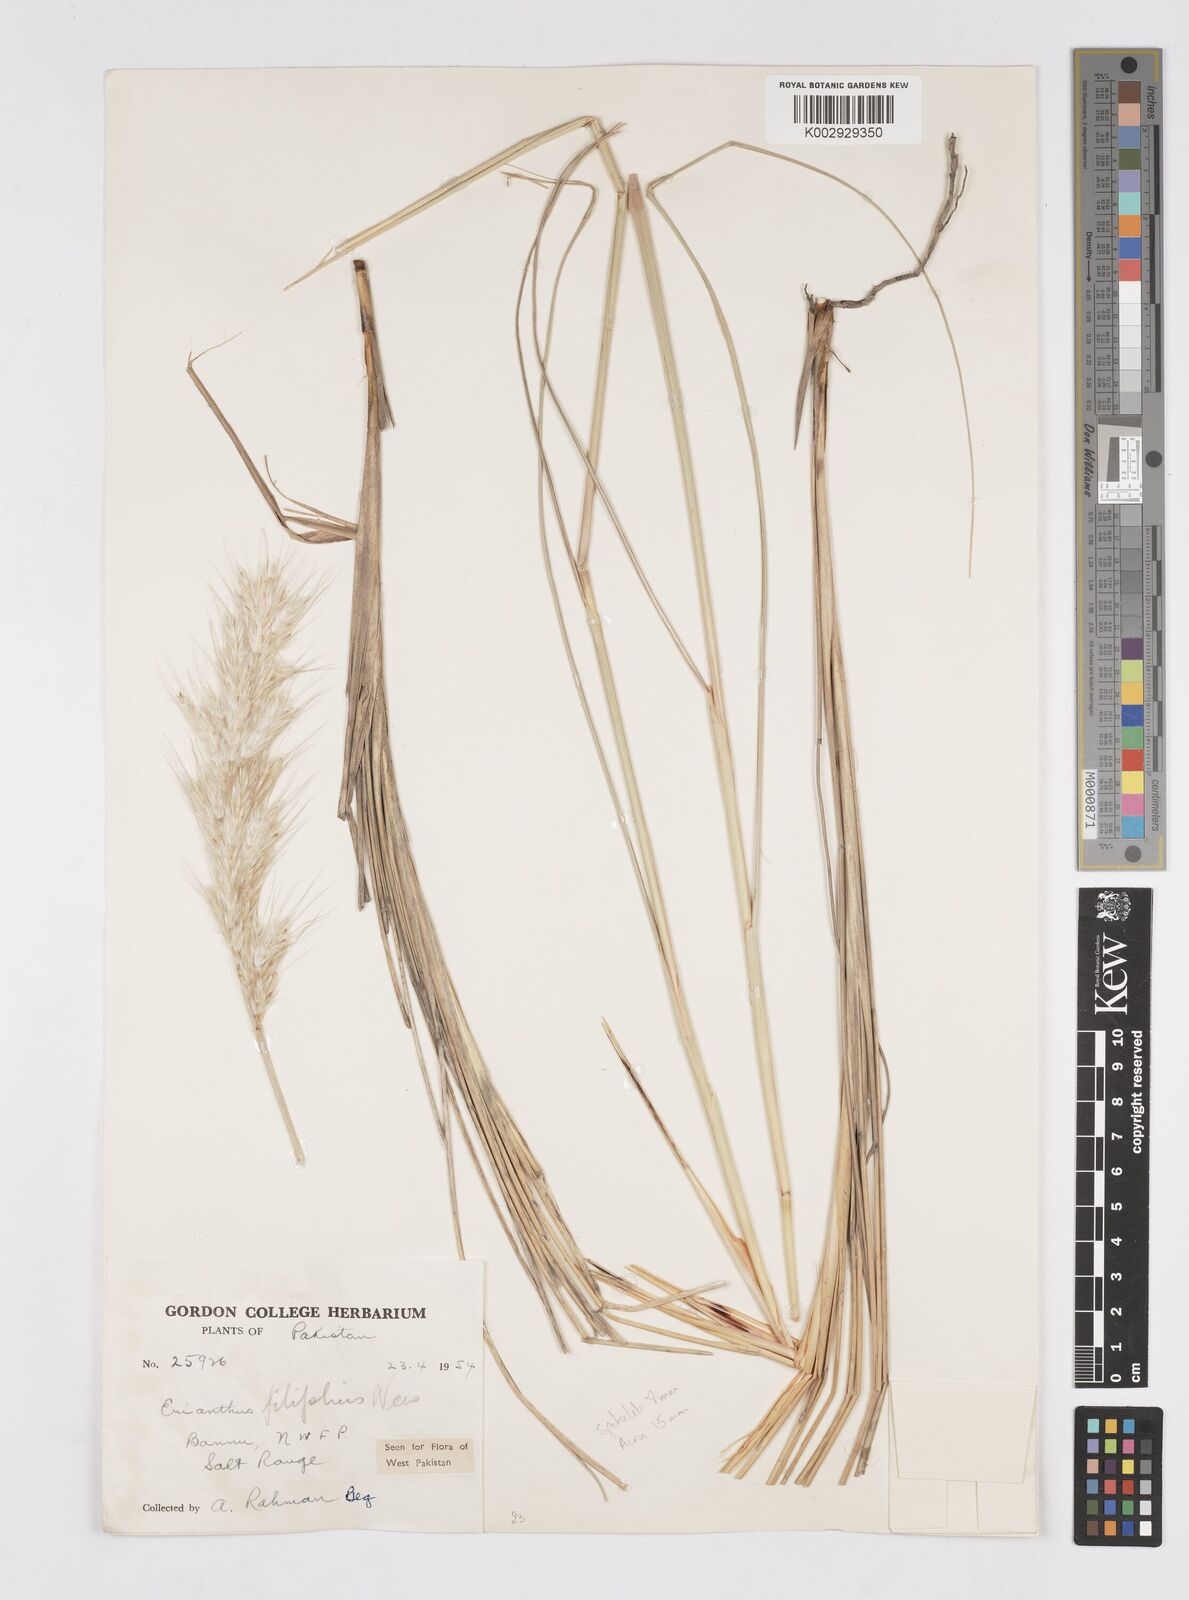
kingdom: Plantae
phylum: Tracheophyta
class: Liliopsida
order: Poales
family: Poaceae
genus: Saccharum
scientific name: Saccharum filifolium
